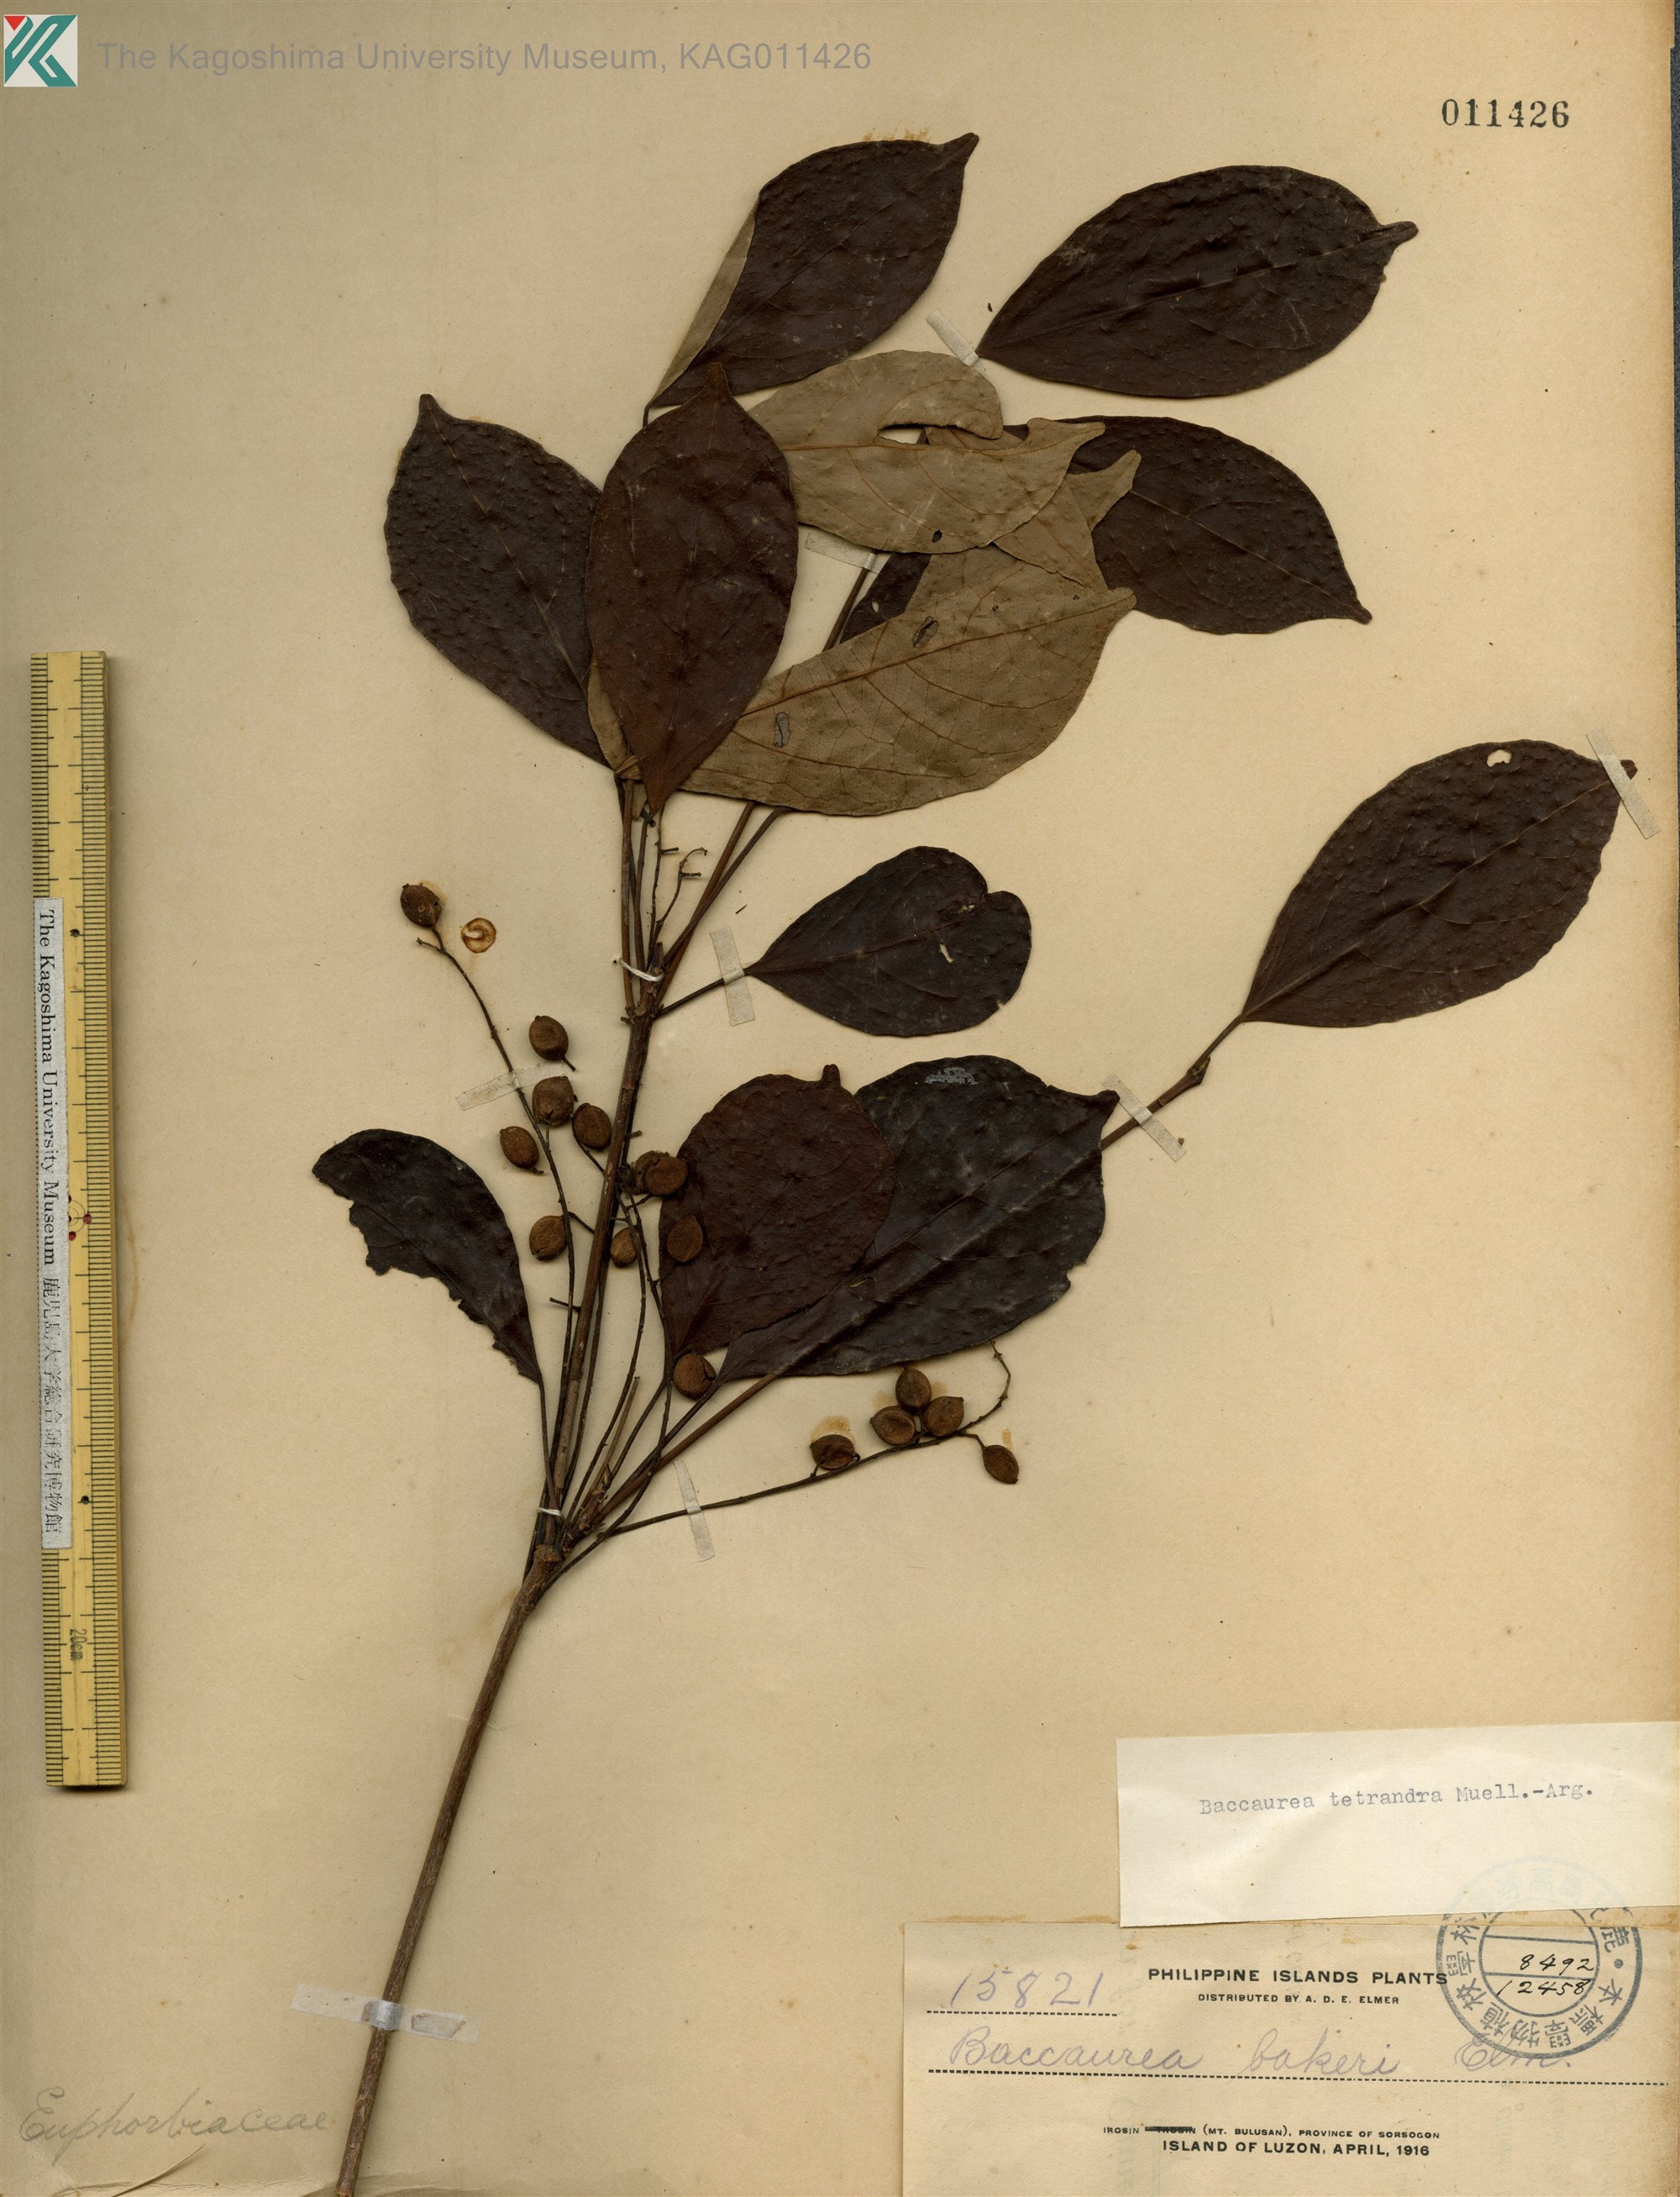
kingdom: Plantae
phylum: Tracheophyta
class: Magnoliopsida
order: Malpighiales
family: Phyllanthaceae
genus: Baccaurea
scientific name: Baccaurea tetrandra
